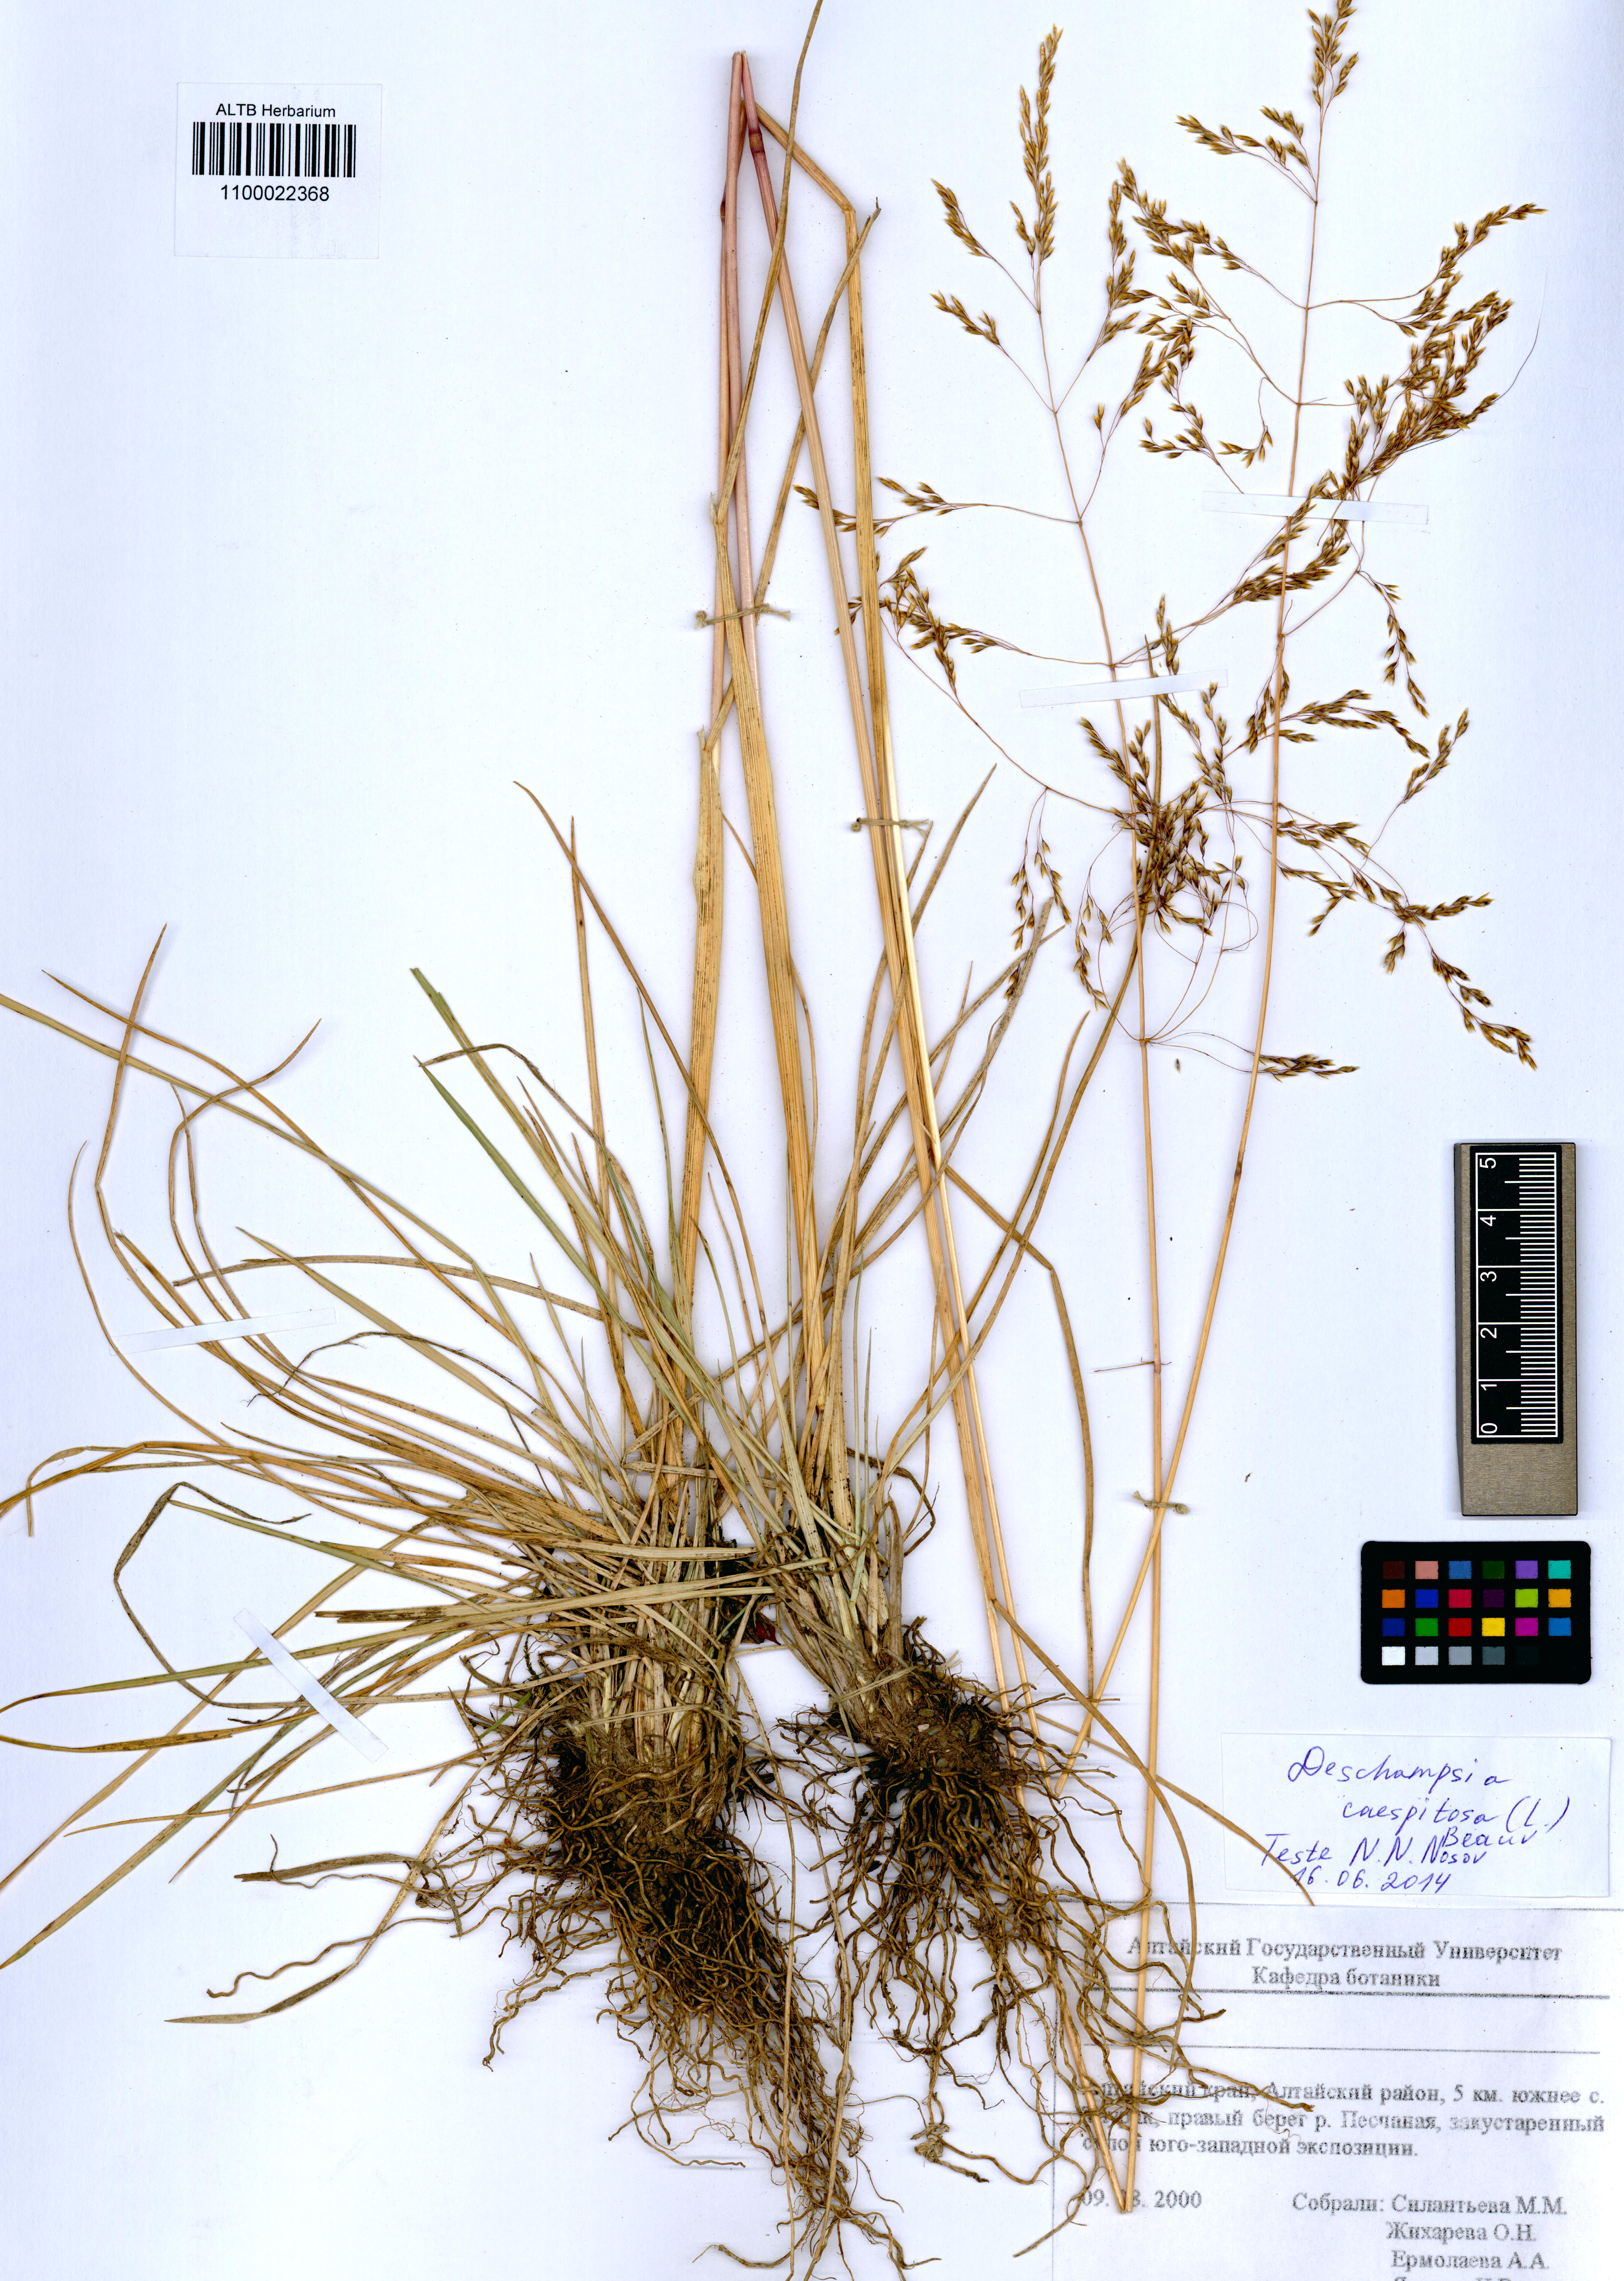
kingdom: Plantae
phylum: Tracheophyta
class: Liliopsida
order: Poales
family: Poaceae
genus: Deschampsia
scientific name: Deschampsia cespitosa
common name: Tufted hair-grass
